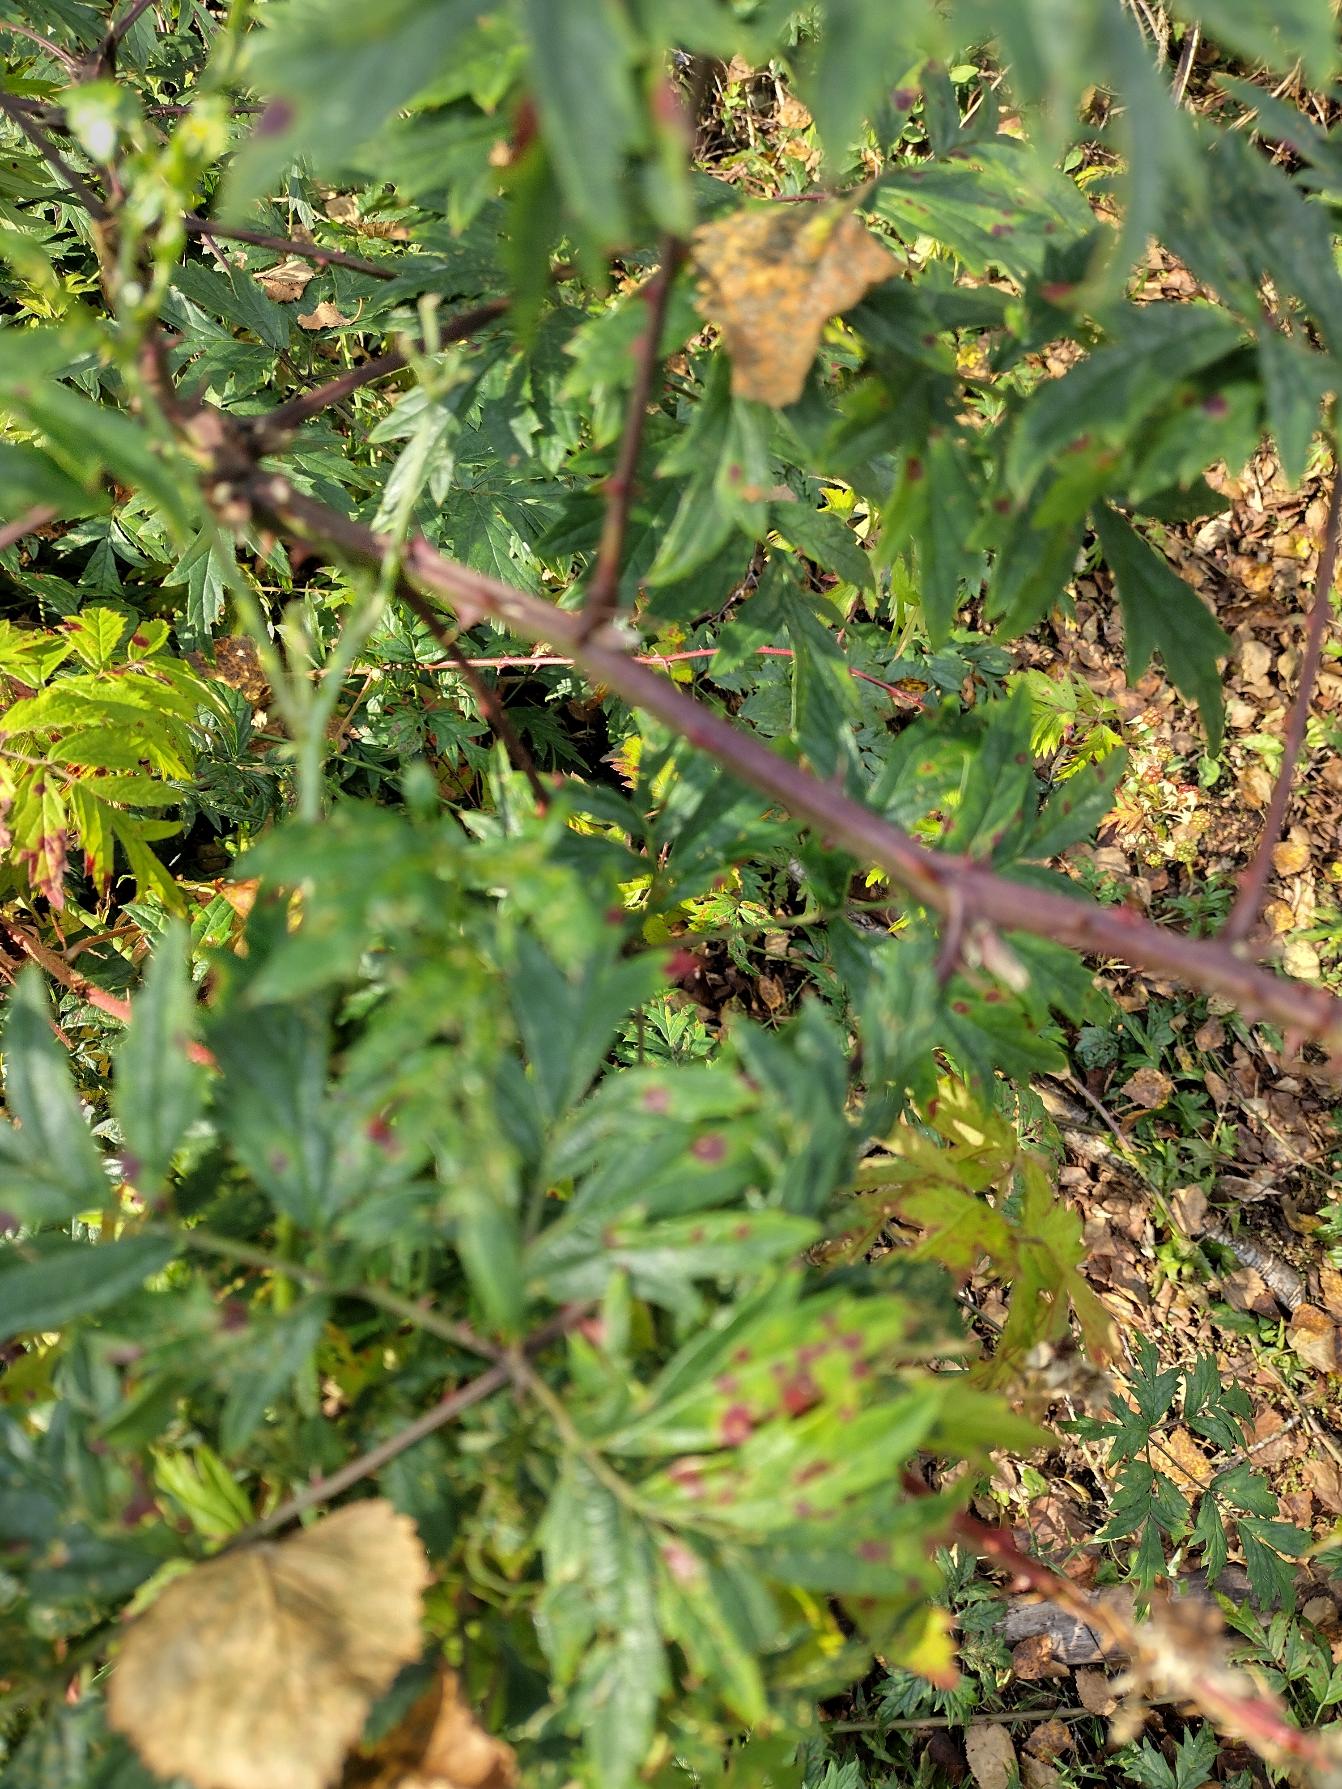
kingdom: Plantae
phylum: Tracheophyta
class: Magnoliopsida
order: Rosales
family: Rosaceae
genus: Rubus
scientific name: Rubus laciniatus
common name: Fliget brombær
